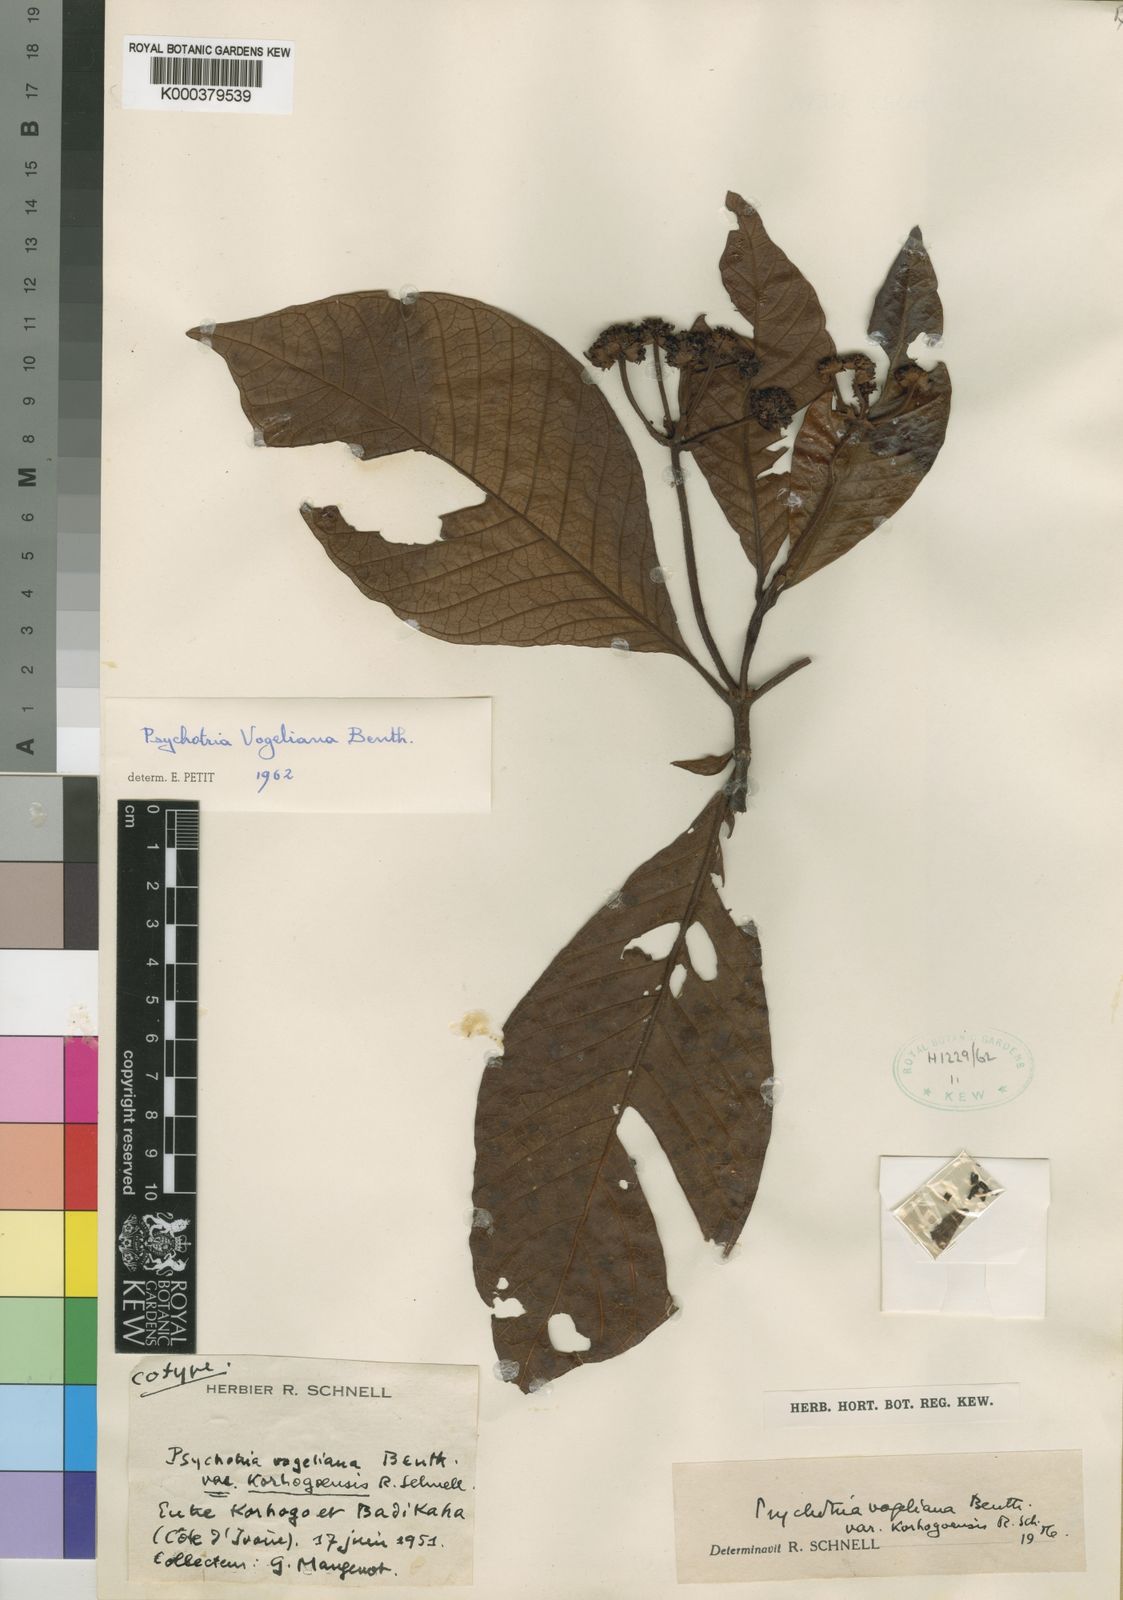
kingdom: Plantae
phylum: Tracheophyta
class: Magnoliopsida
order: Gentianales
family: Rubiaceae
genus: Psychotria
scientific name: Psychotria vogeliana
